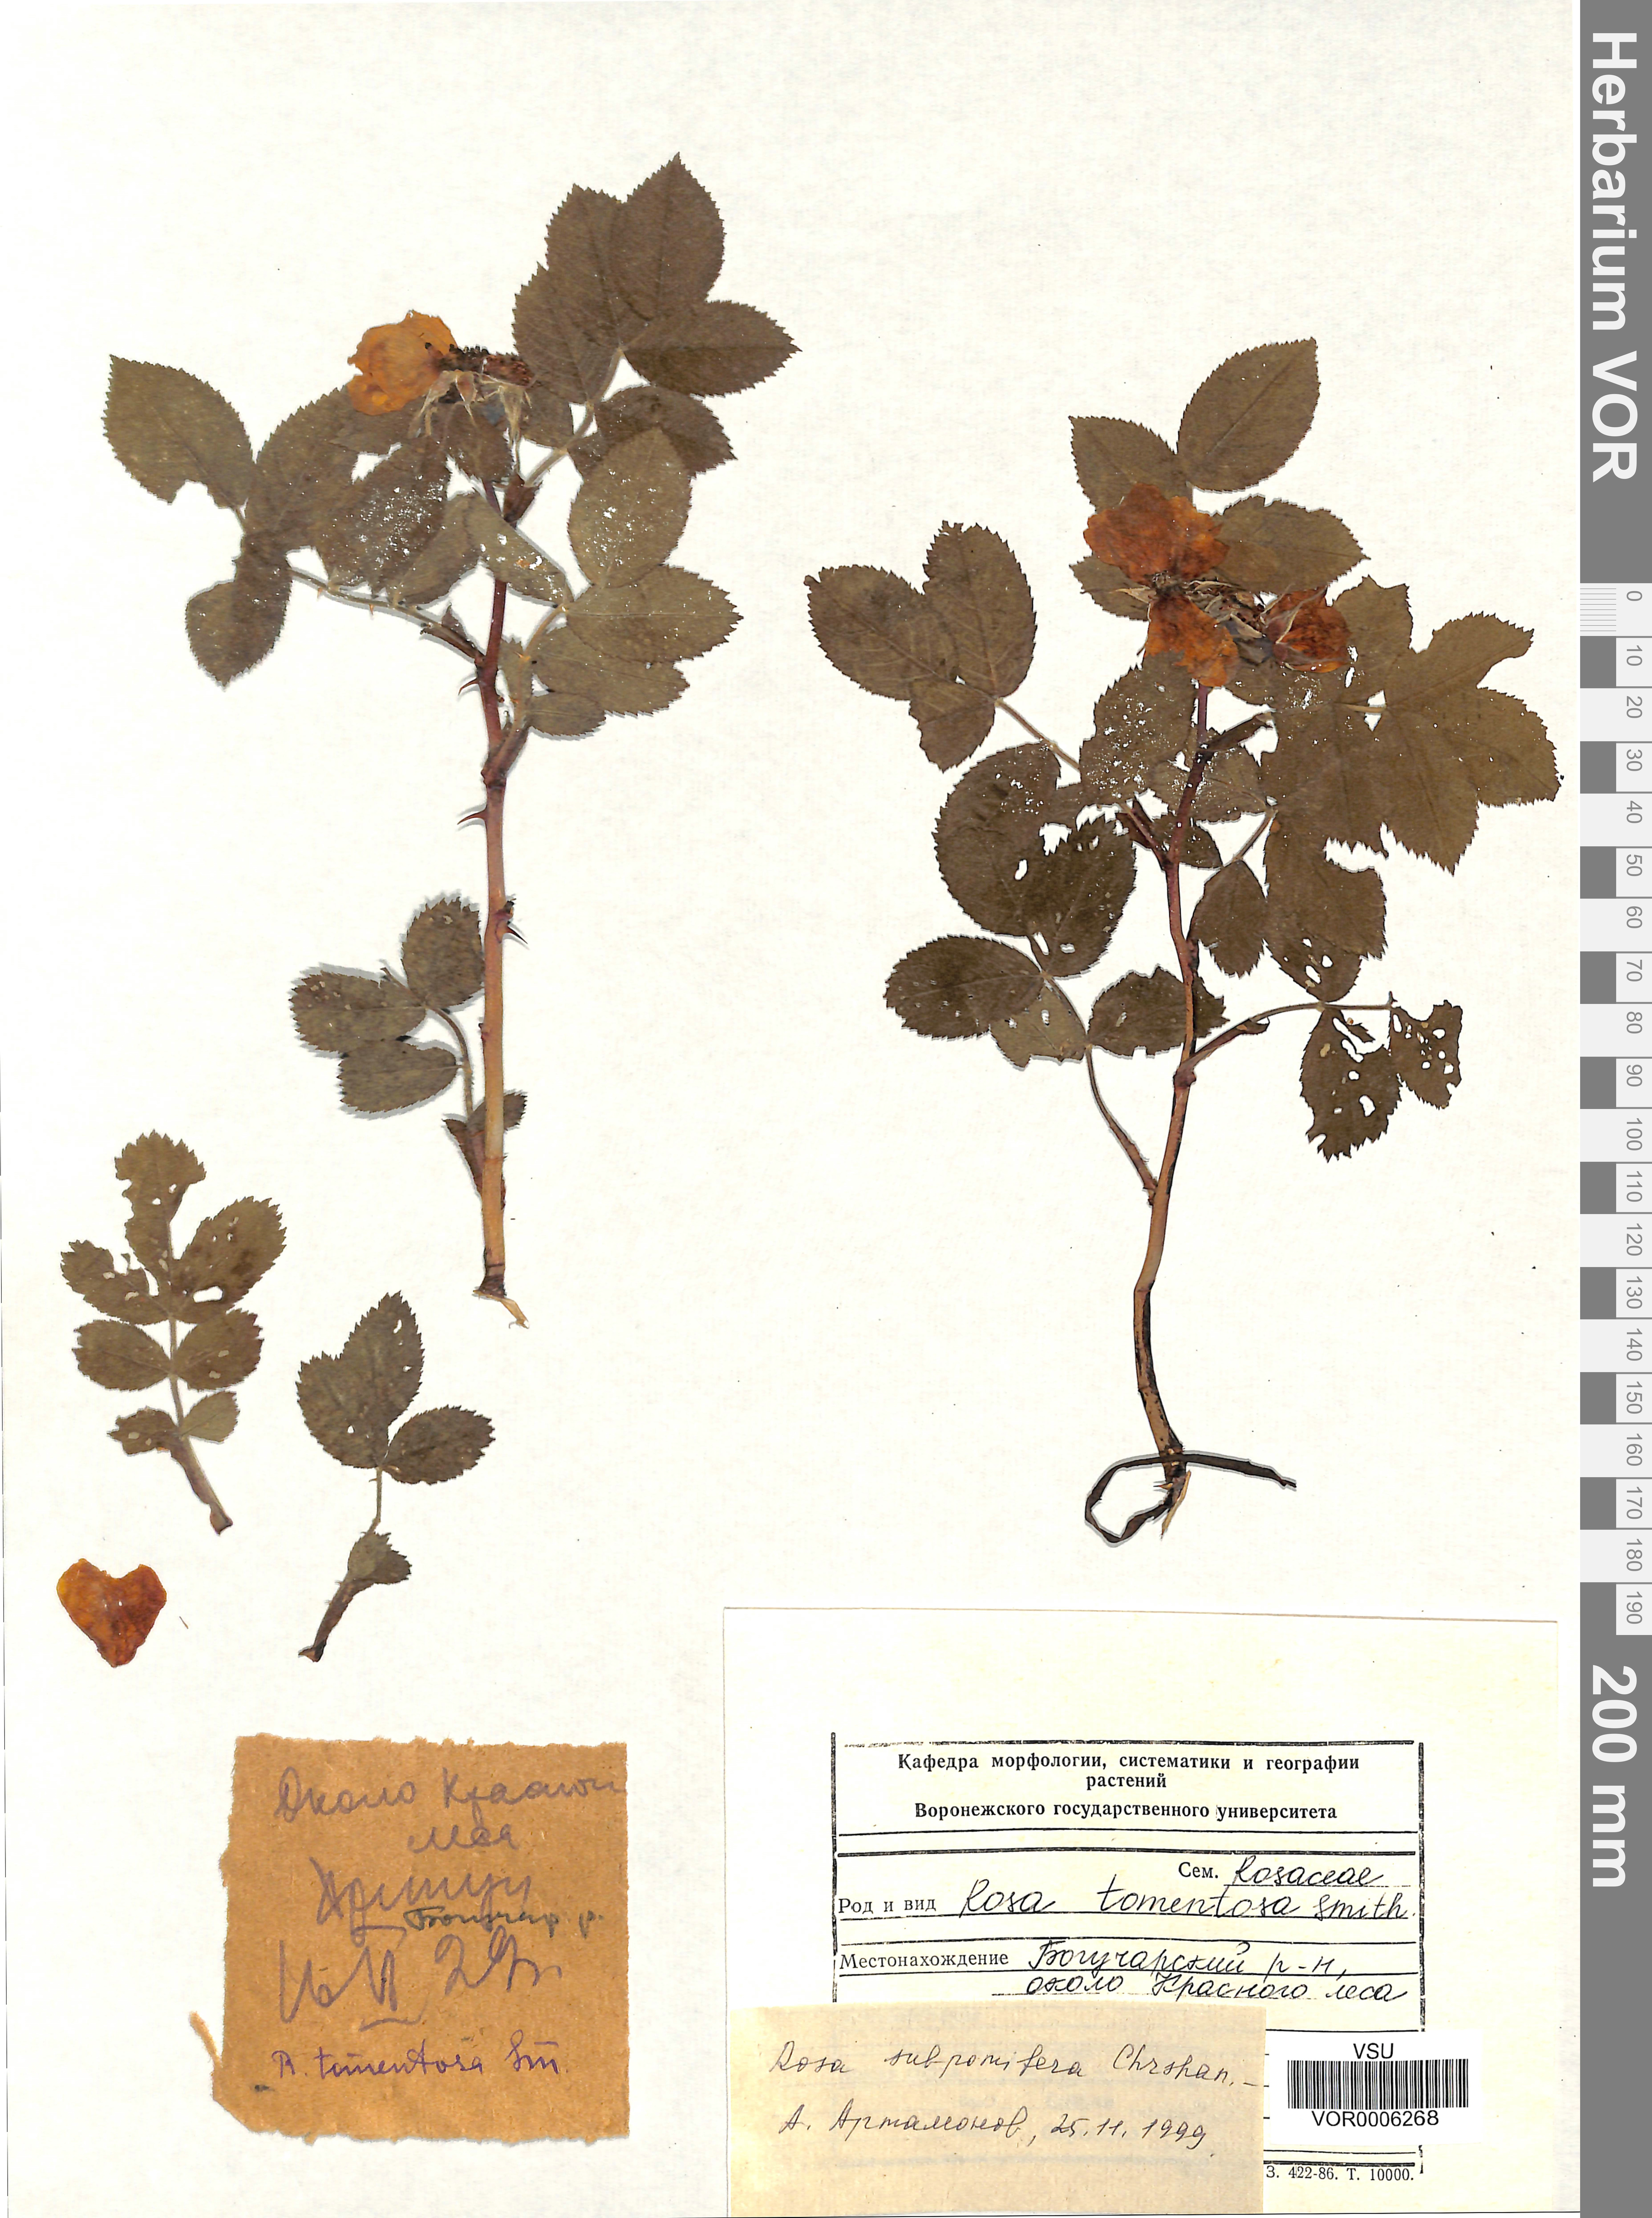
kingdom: Plantae
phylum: Tracheophyta
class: Magnoliopsida
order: Rosales
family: Rosaceae
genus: Rosa
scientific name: Rosa subpomifera
